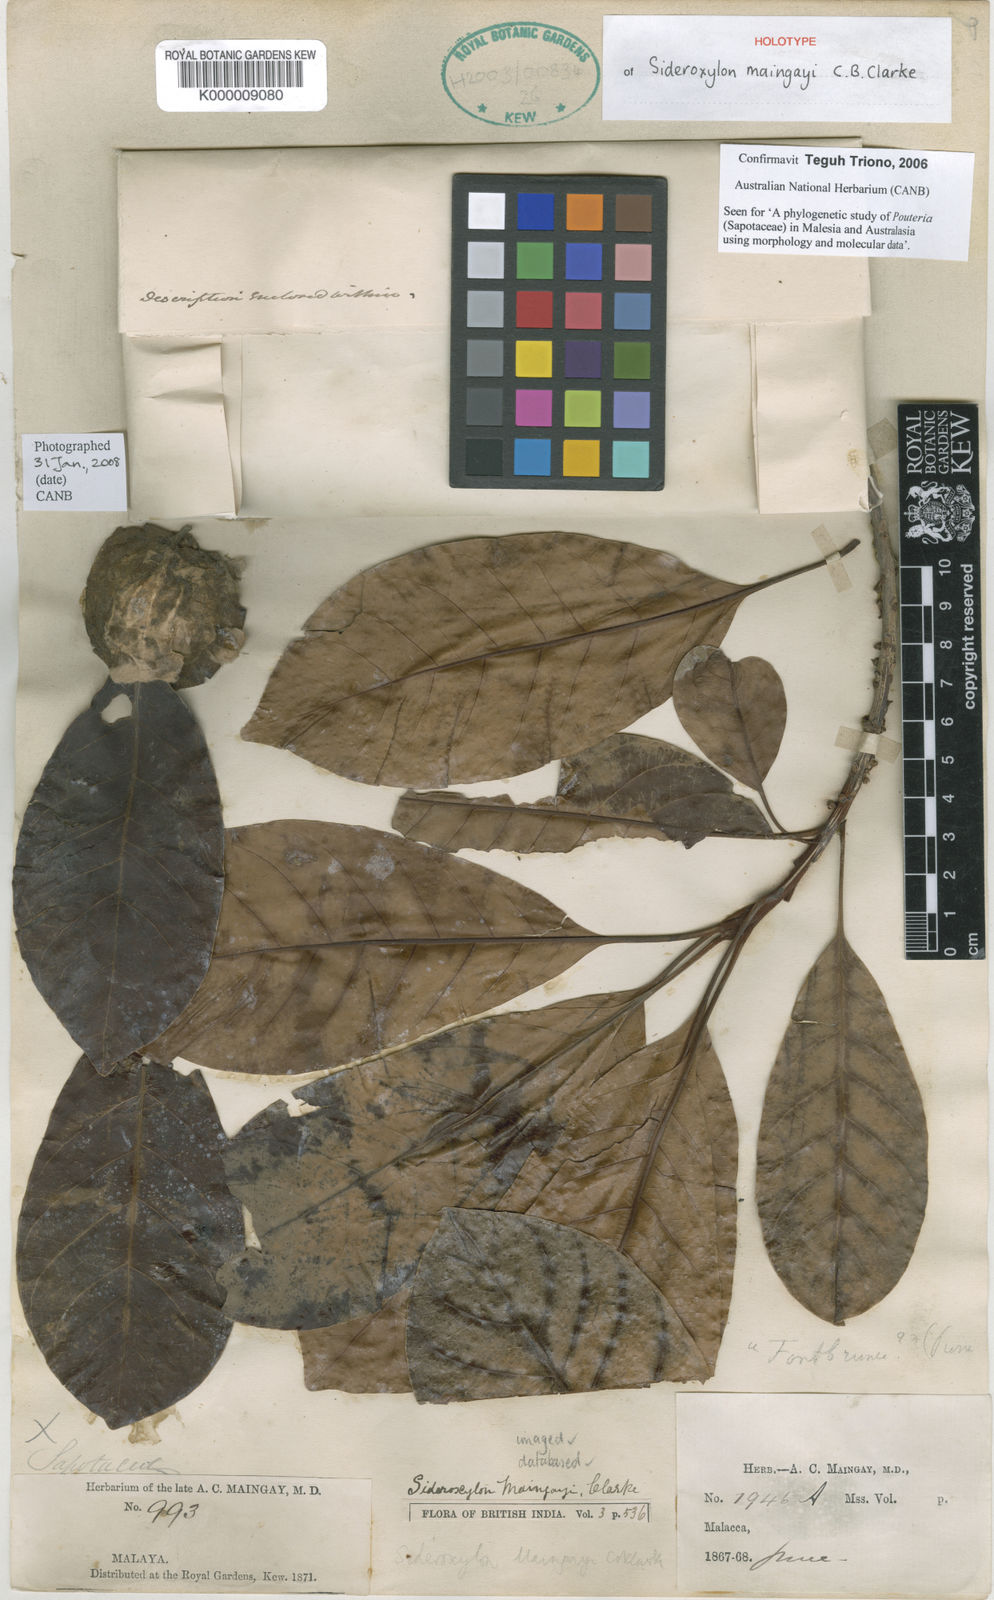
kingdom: Plantae
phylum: Tracheophyta
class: Magnoliopsida
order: Ericales
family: Sapotaceae
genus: Planchonella
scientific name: Planchonella maingayi
